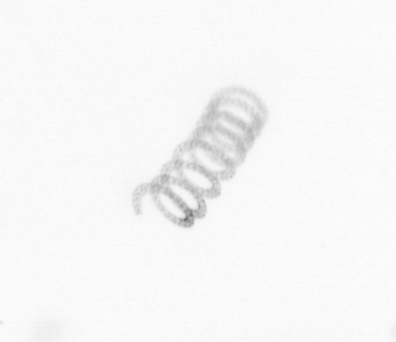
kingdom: Chromista
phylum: Ochrophyta
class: Bacillariophyceae
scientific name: Bacillariophyceae
